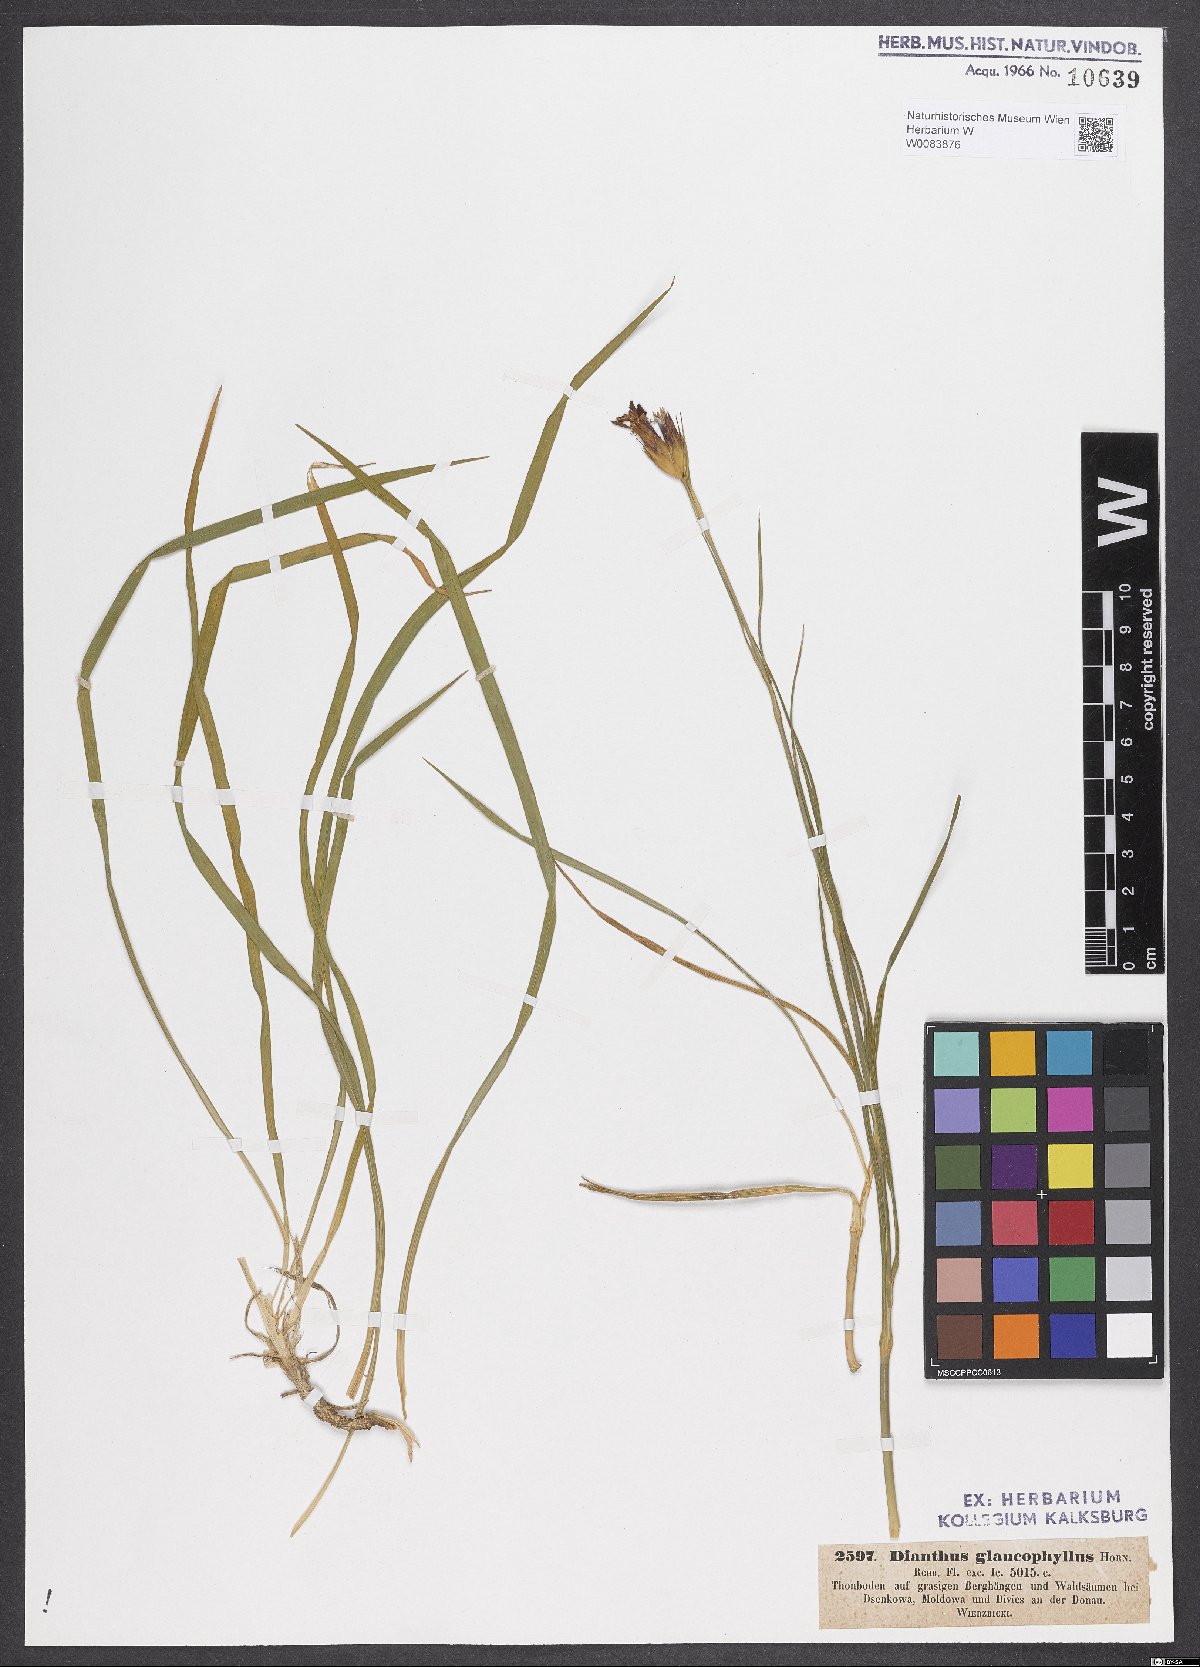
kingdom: Plantae
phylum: Tracheophyta
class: Magnoliopsida
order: Caryophyllales
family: Caryophyllaceae
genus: Dianthus
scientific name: Dianthus balbisii
